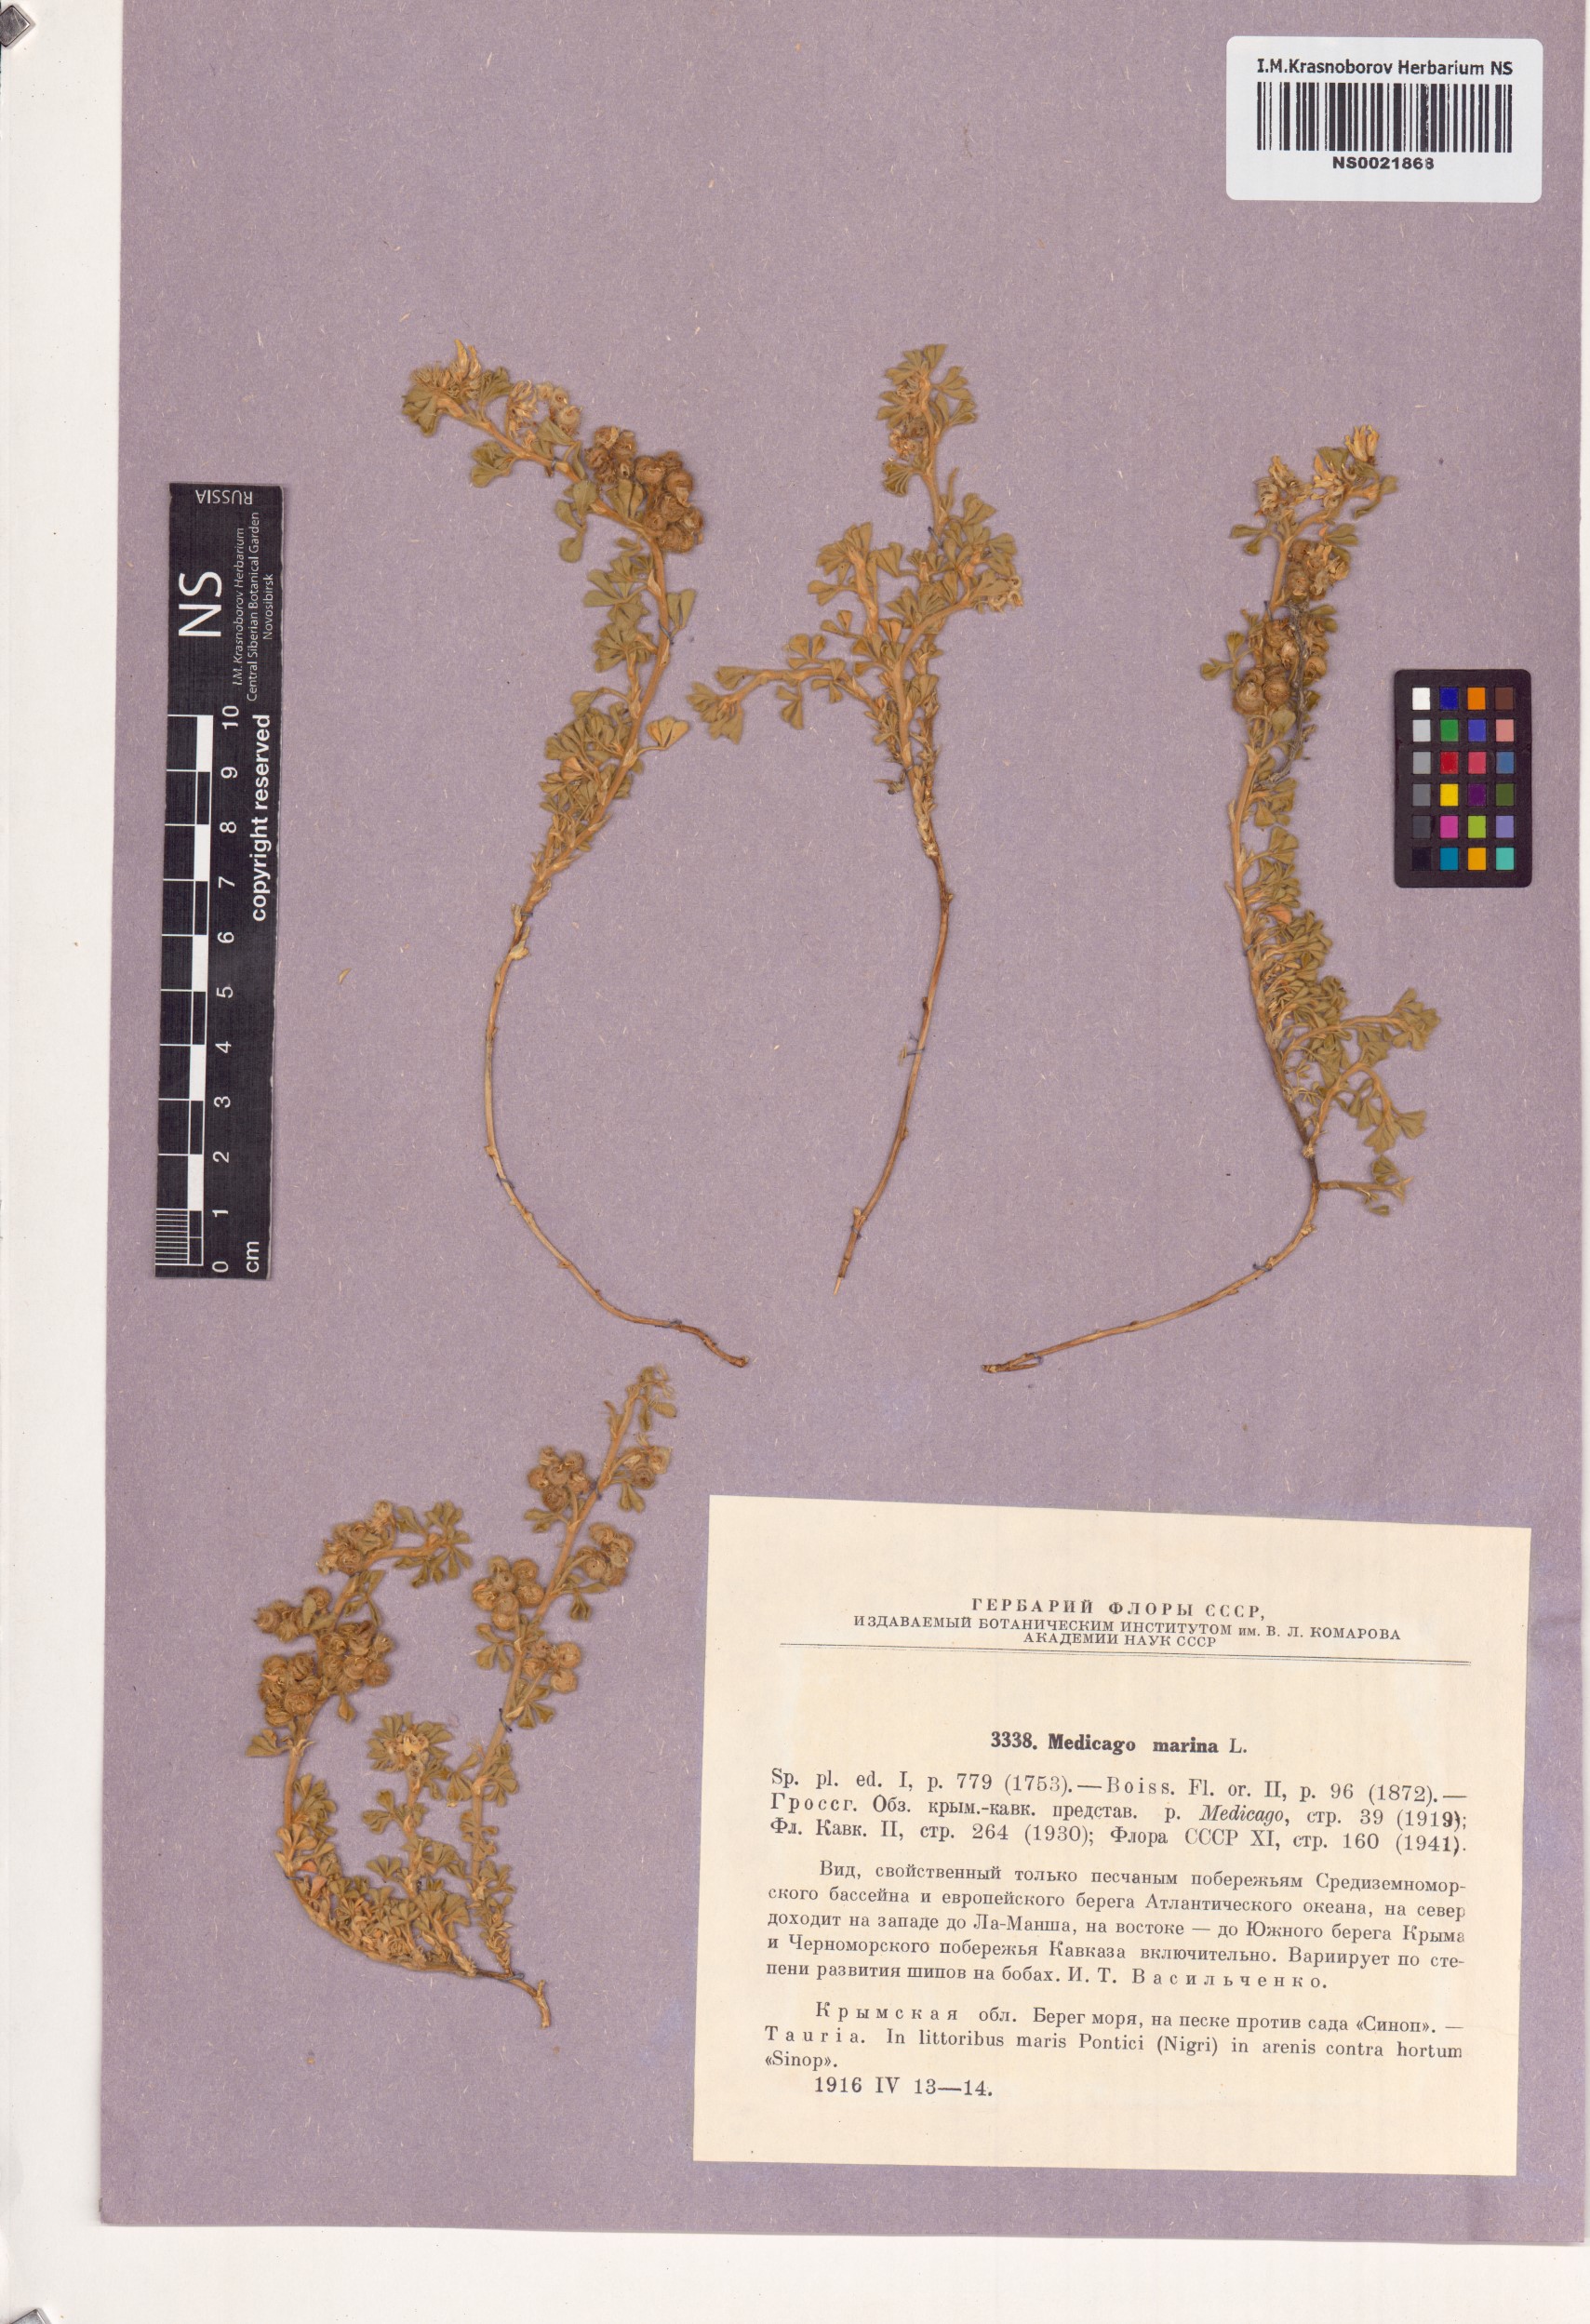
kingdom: Plantae
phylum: Tracheophyta
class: Magnoliopsida
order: Fabales
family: Fabaceae
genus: Medicago
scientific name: Medicago marina
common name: Sea medick
